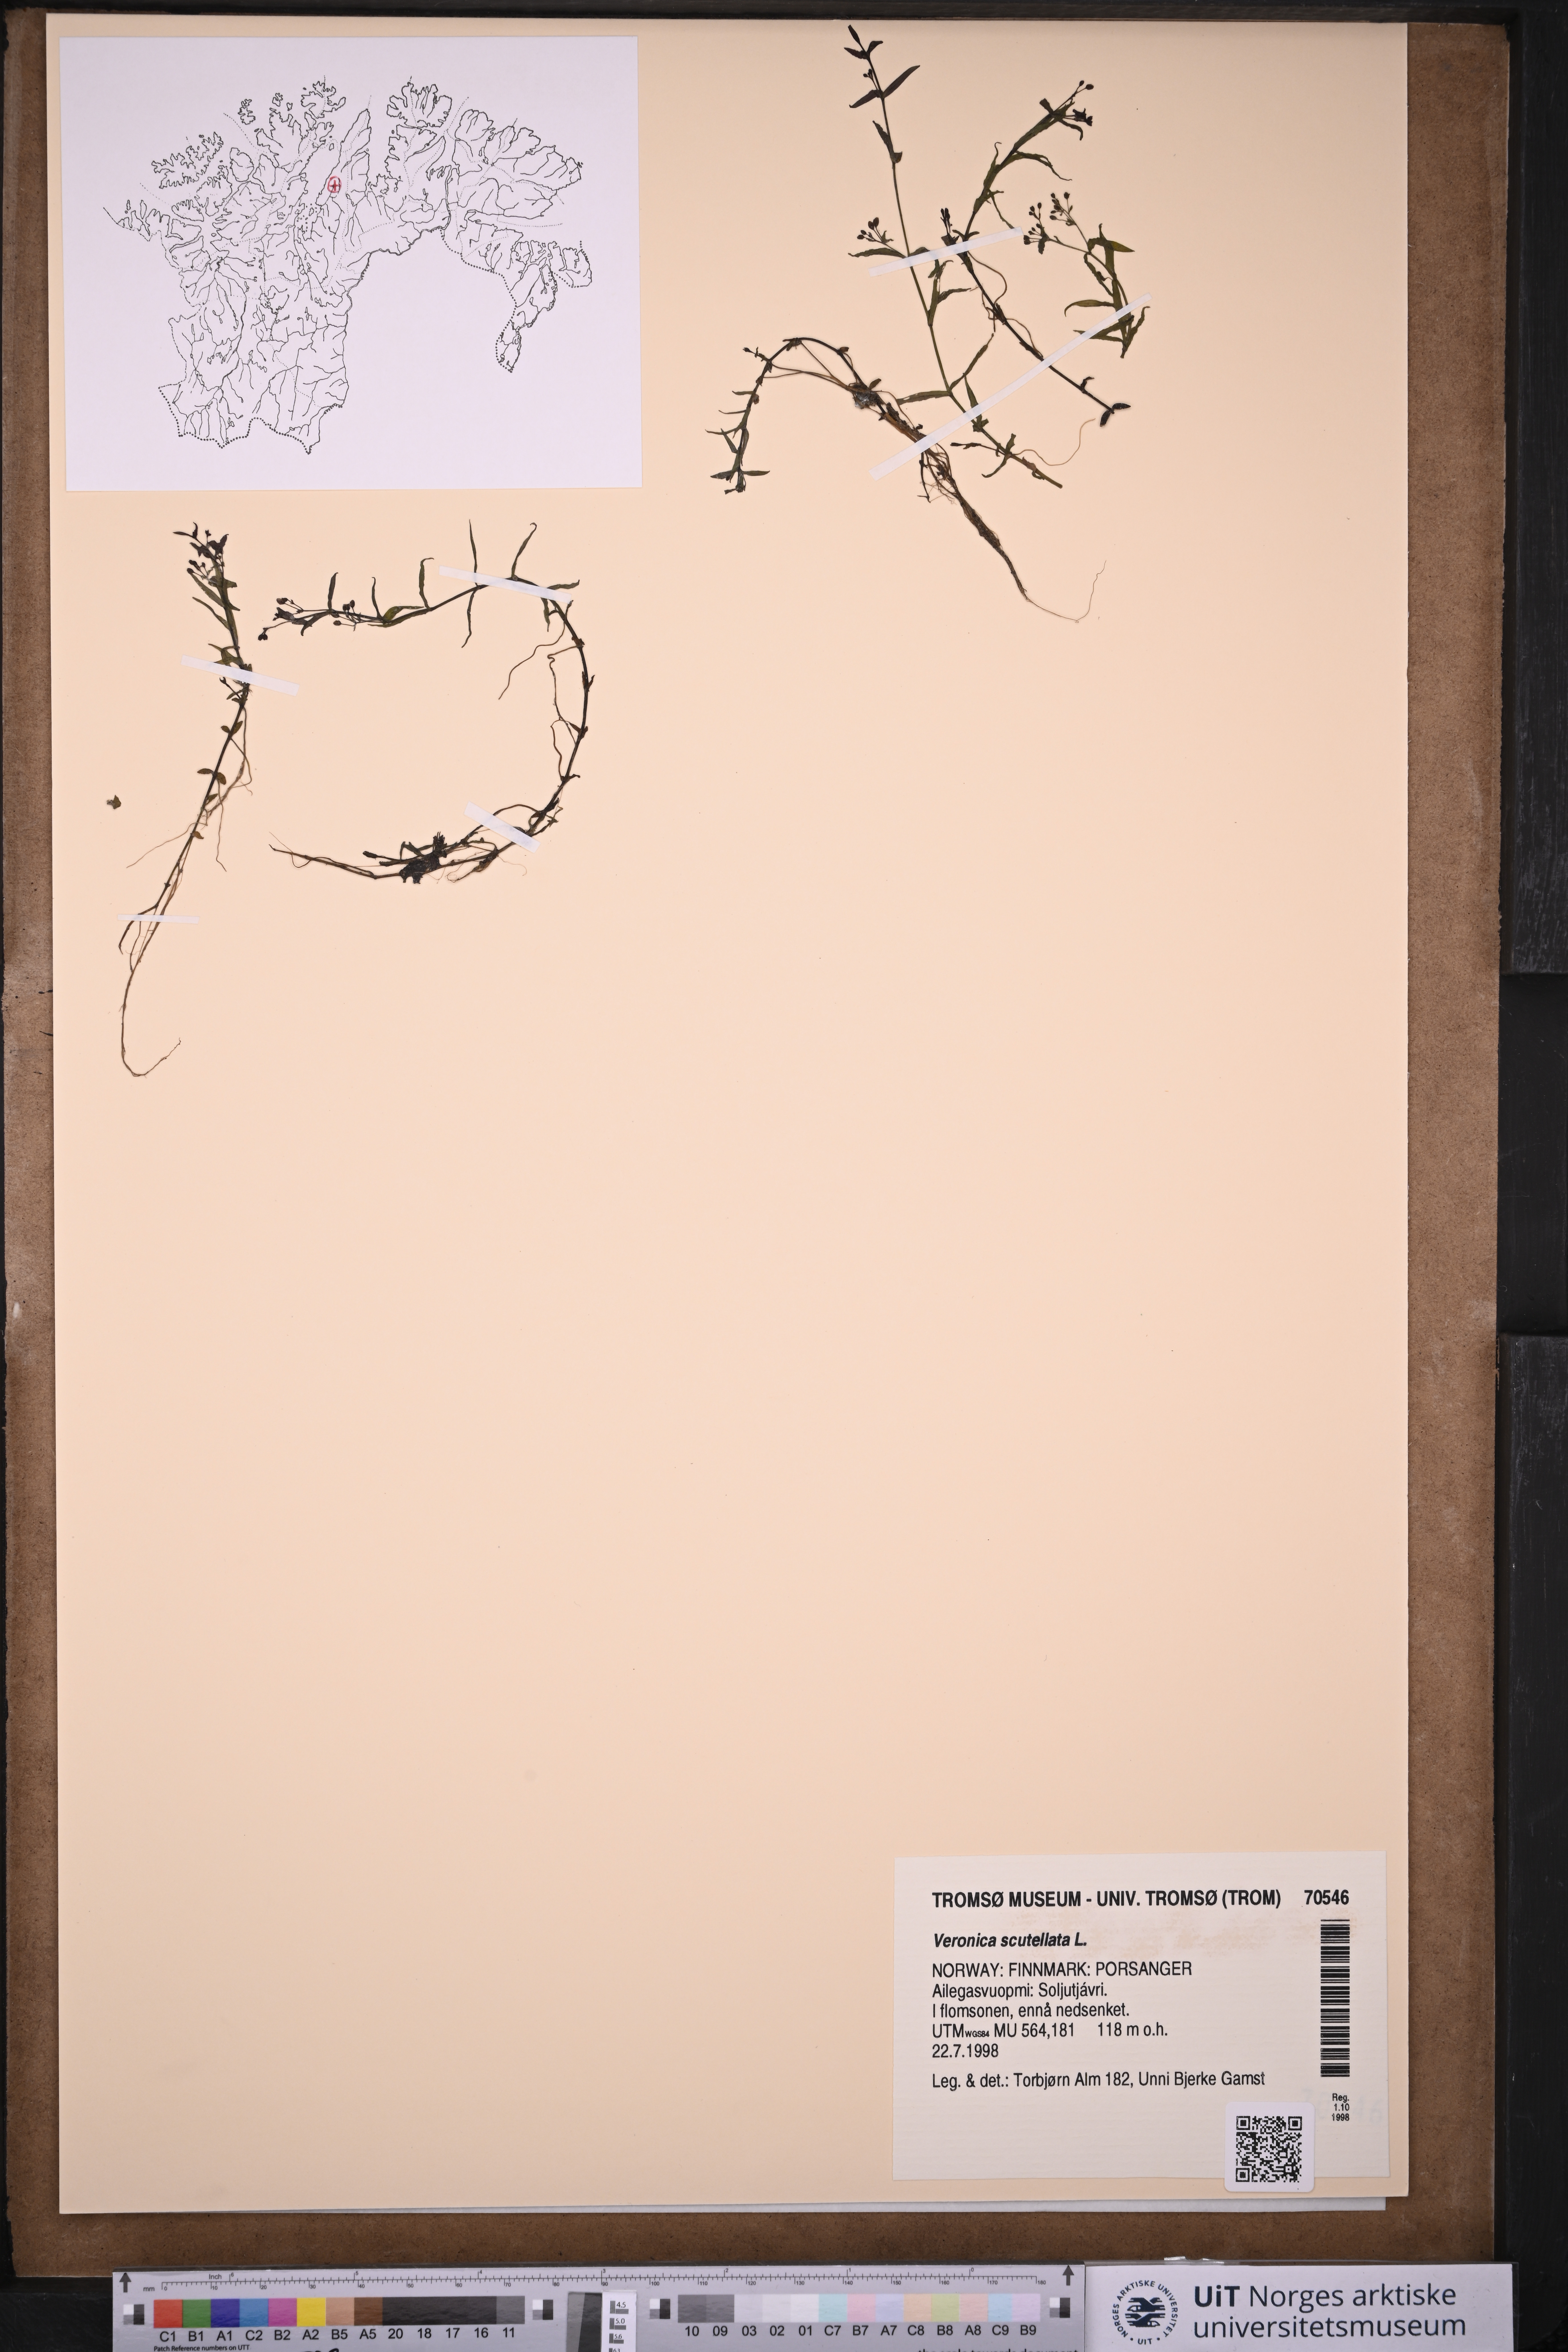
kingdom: Plantae
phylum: Tracheophyta
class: Magnoliopsida
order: Lamiales
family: Plantaginaceae
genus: Veronica
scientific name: Veronica scutellata
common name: Marsh speedwell
